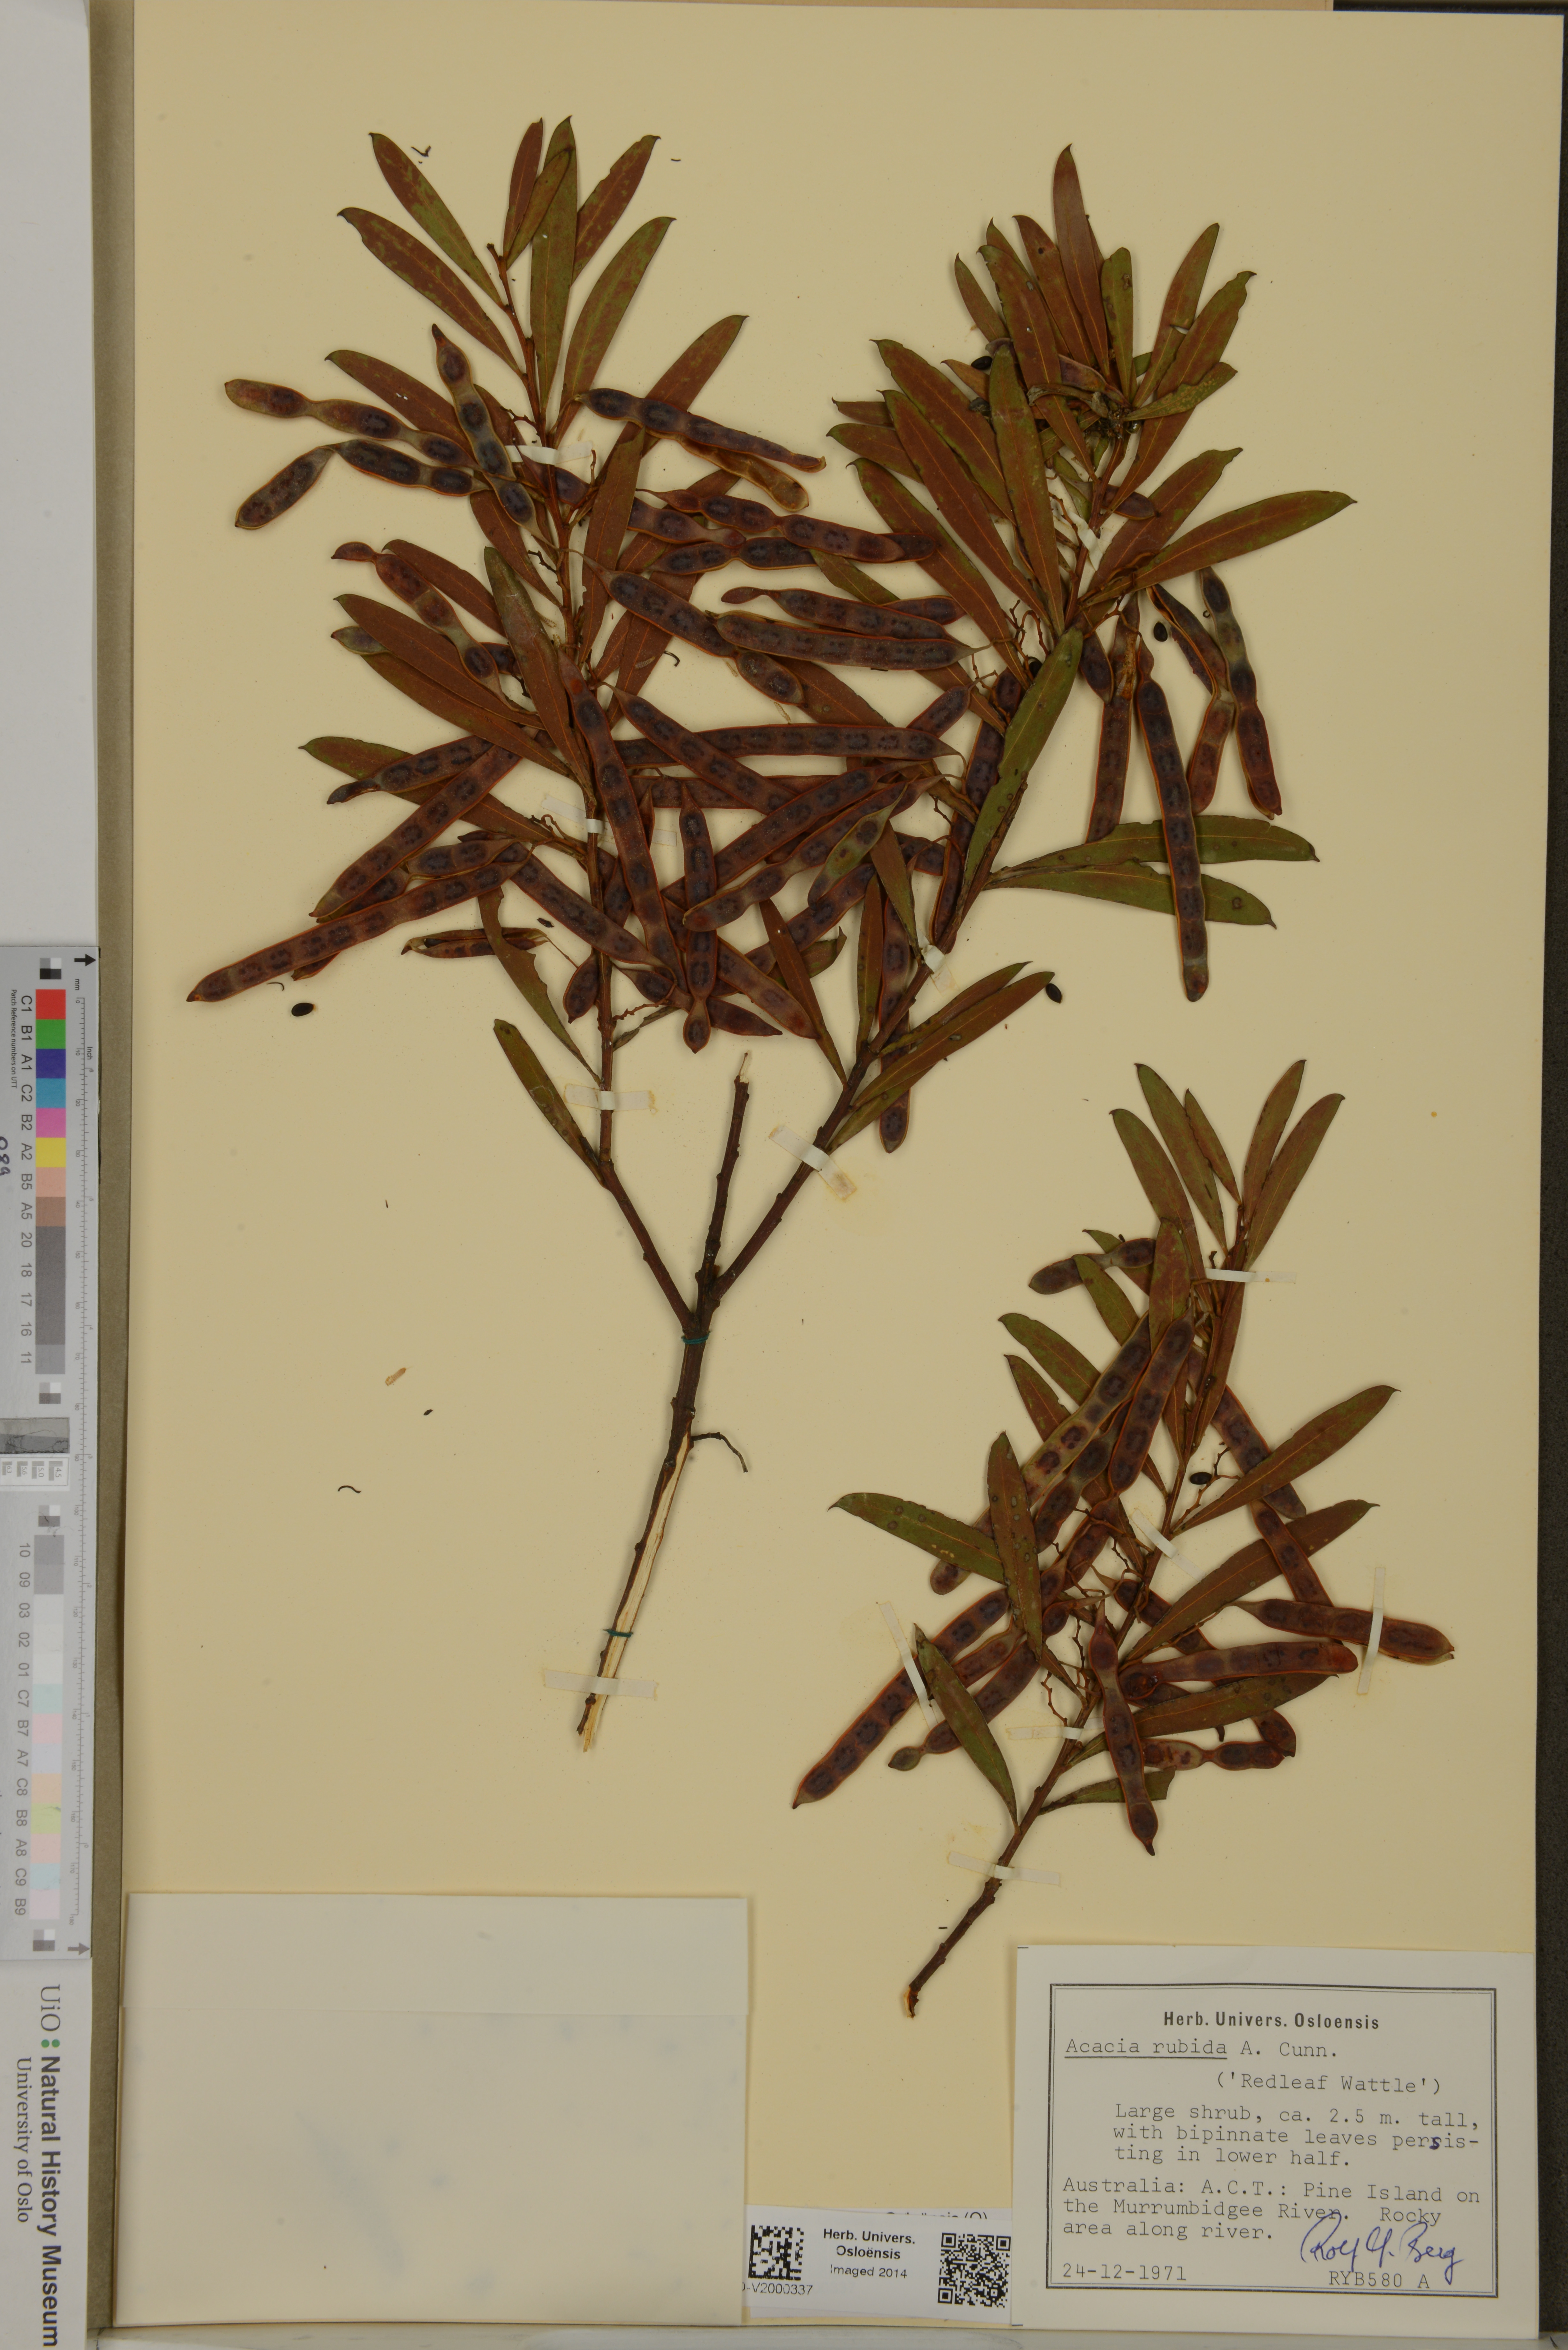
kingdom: Plantae
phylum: Tracheophyta
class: Magnoliopsida
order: Fabales
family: Fabaceae
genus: Acacia
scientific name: Acacia rubida
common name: Red leaf wattle
